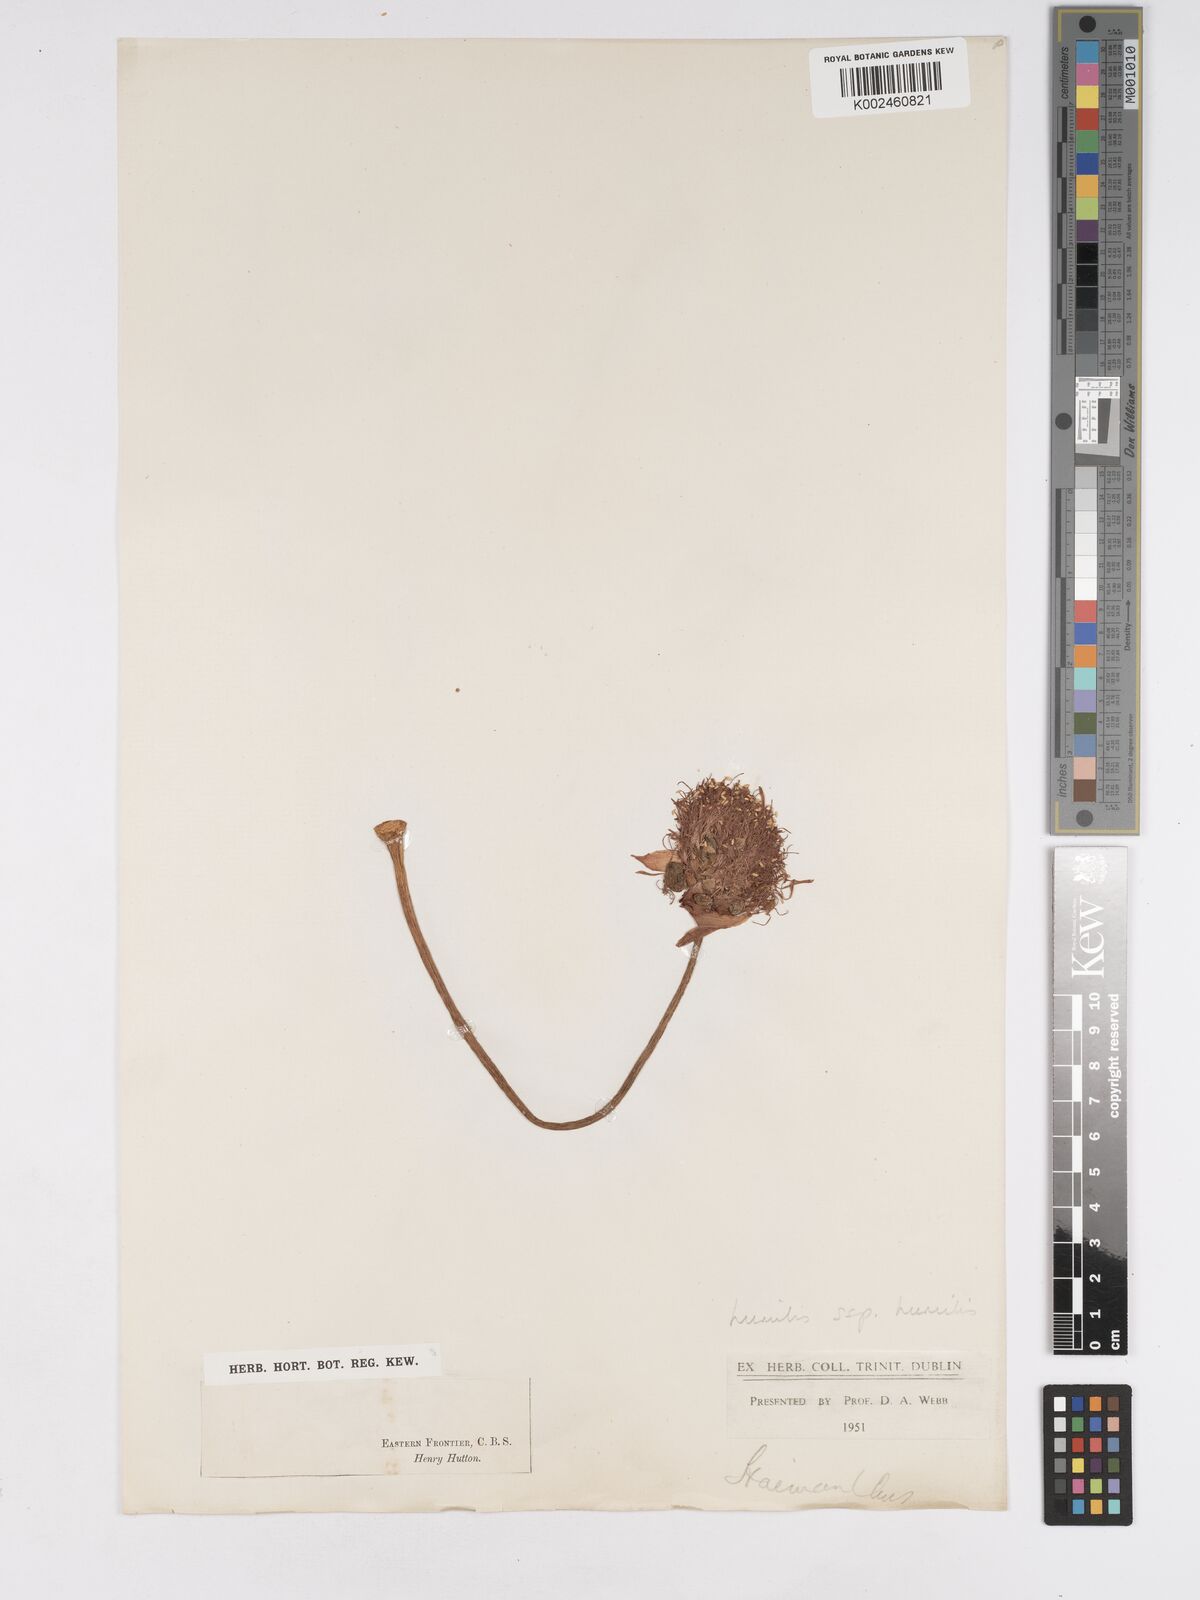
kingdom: Plantae
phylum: Tracheophyta
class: Liliopsida
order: Asparagales
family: Amaryllidaceae
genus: Haemanthus
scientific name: Haemanthus humilis
